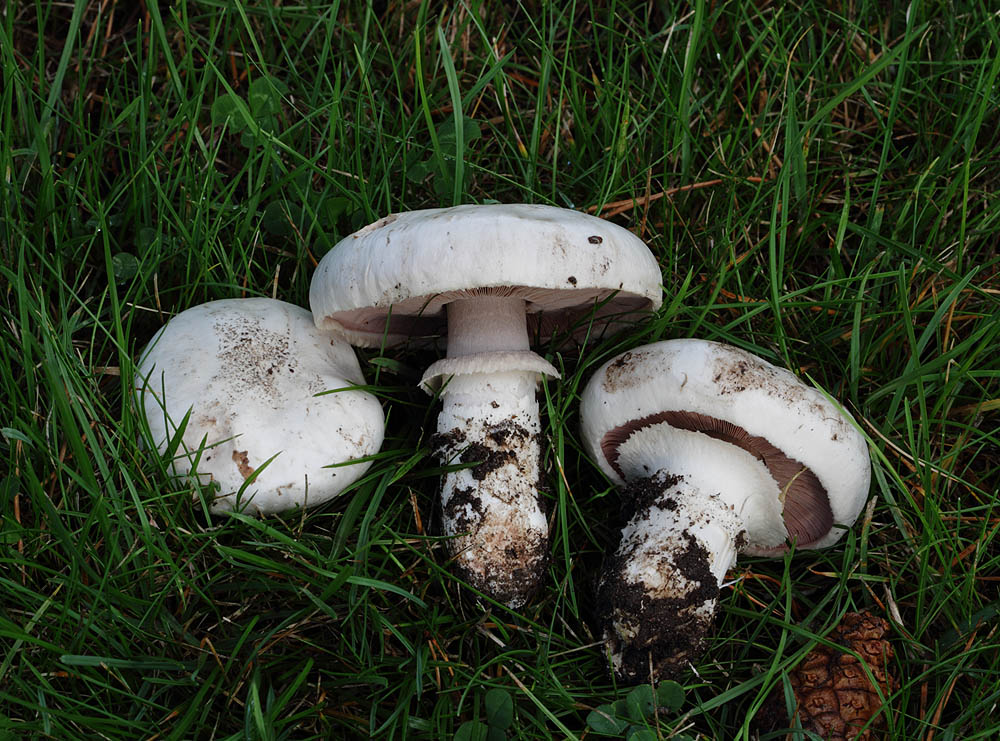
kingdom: Fungi
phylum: Basidiomycota
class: Agaricomycetes
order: Agaricales
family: Agaricaceae
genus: Agaricus
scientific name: Agaricus bitorquis
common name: vej-champignon
